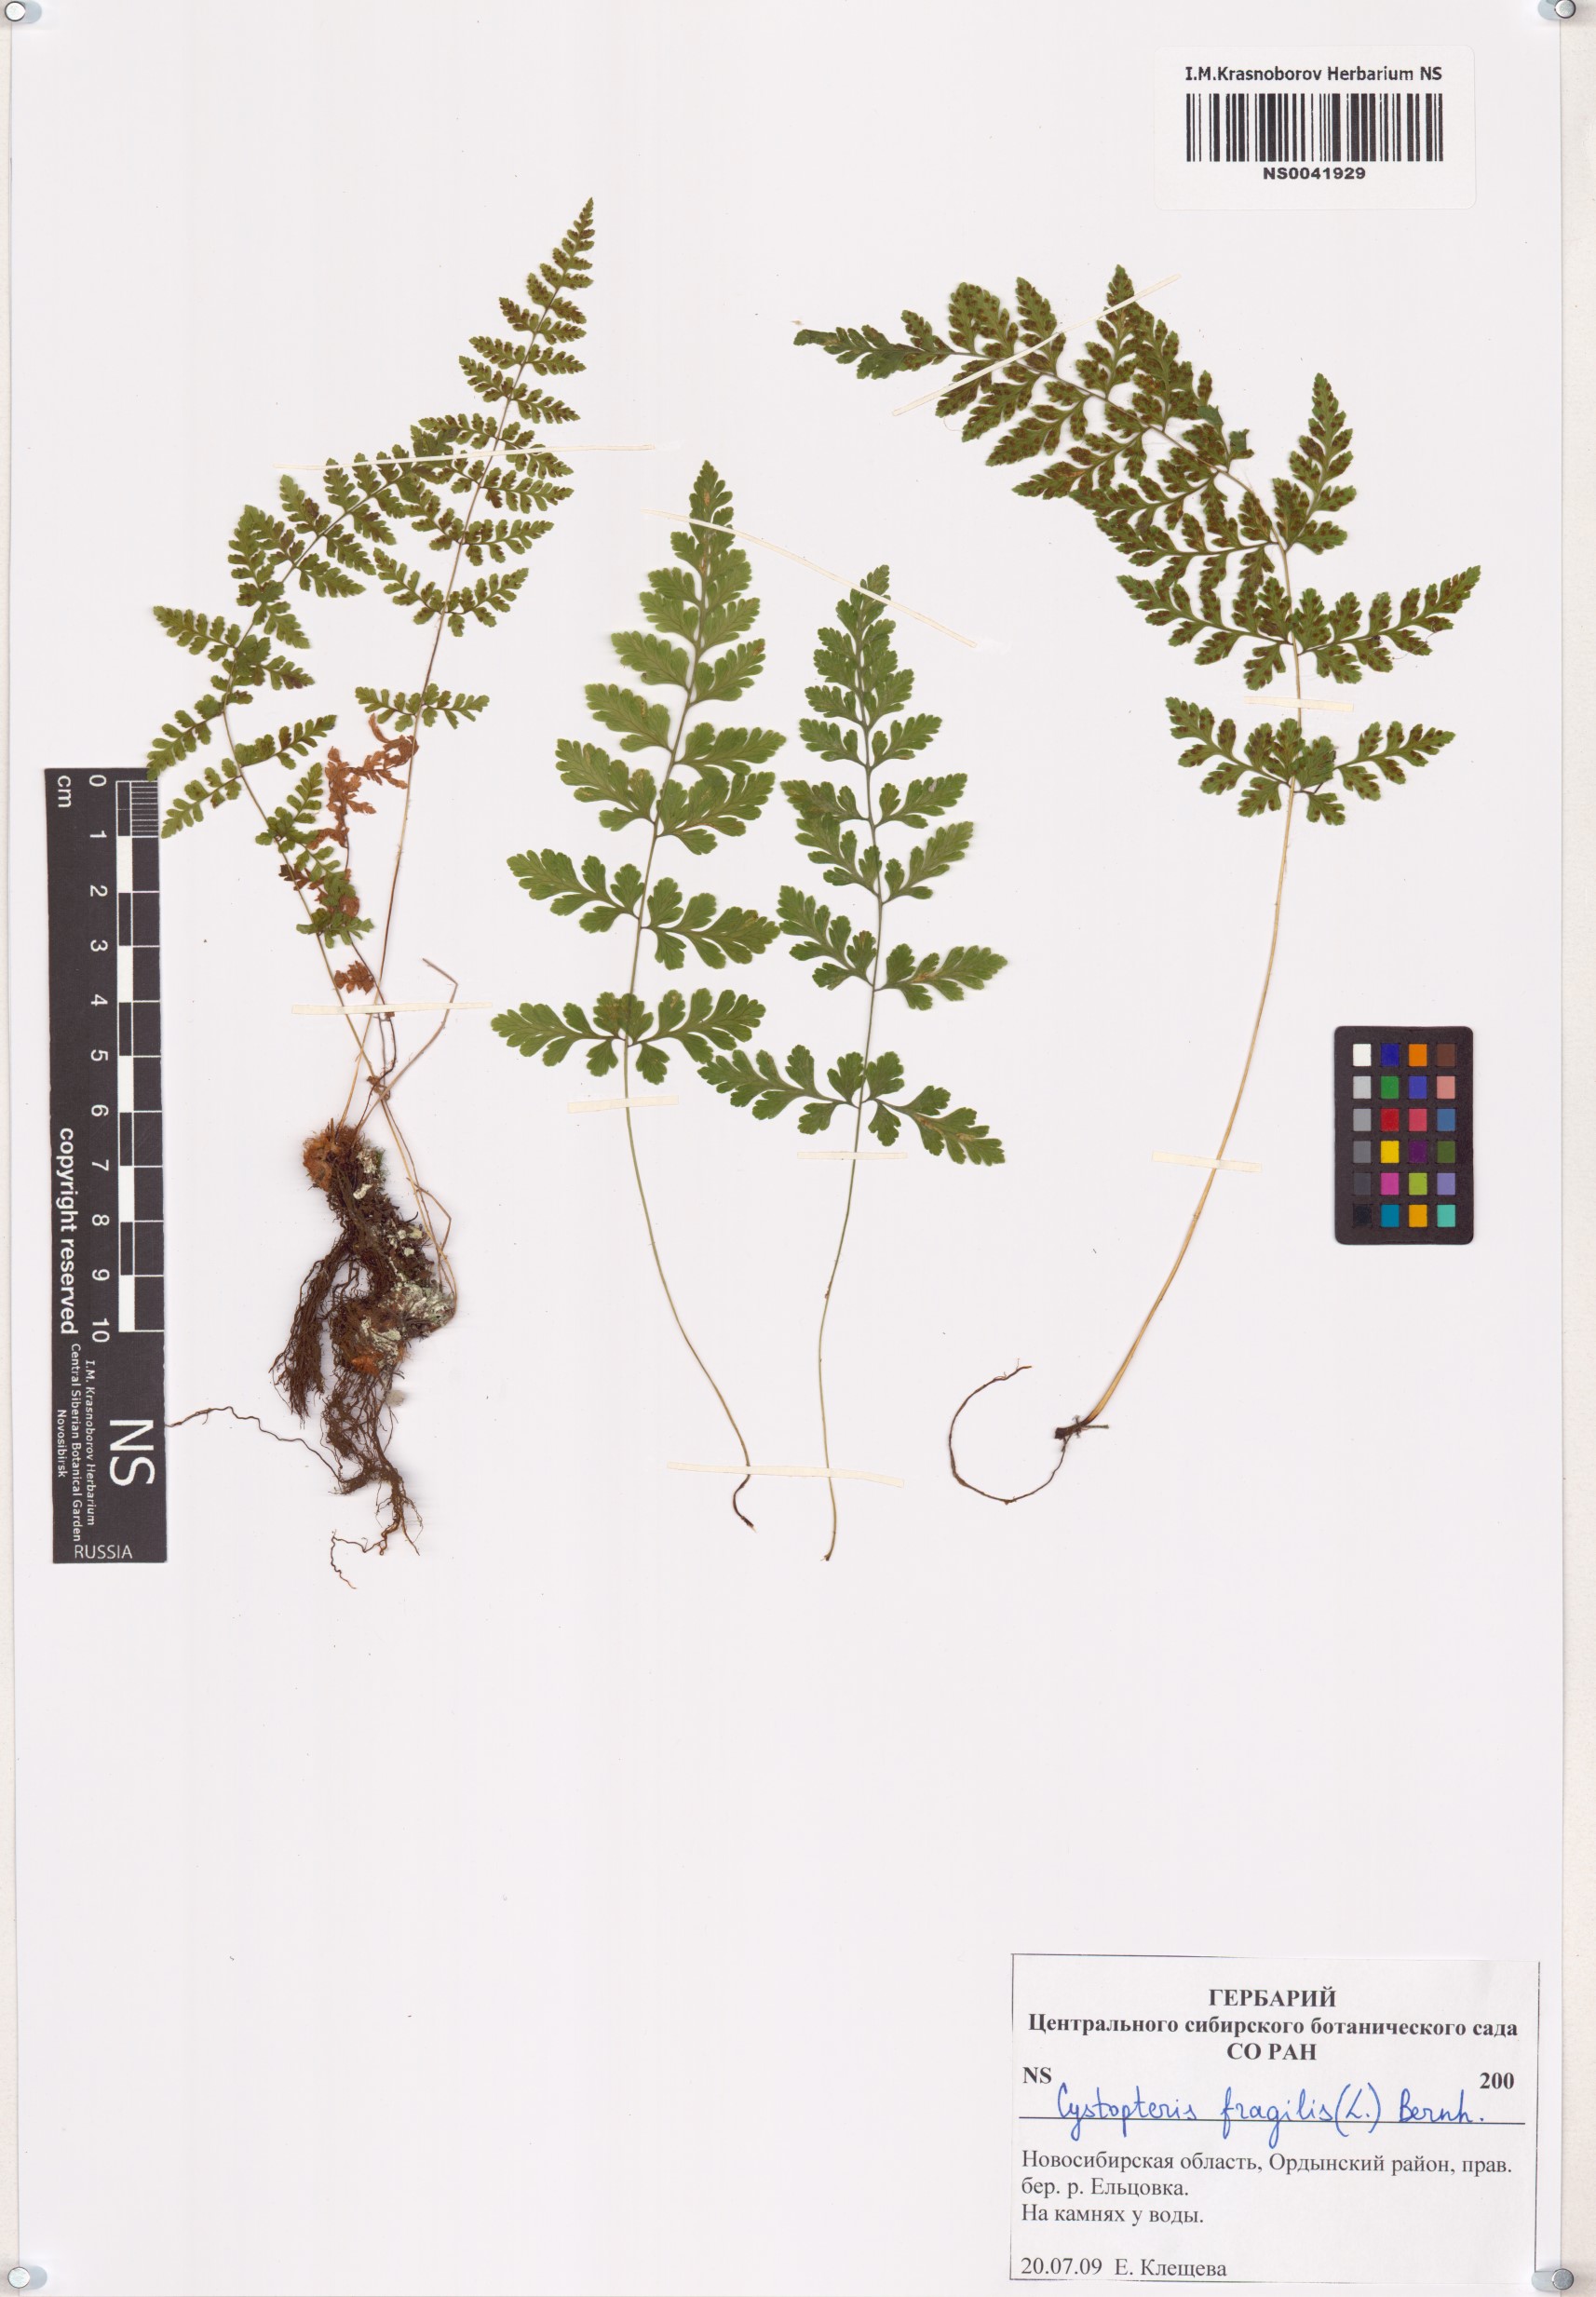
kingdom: Plantae
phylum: Tracheophyta
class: Polypodiopsida
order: Polypodiales
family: Cystopteridaceae
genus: Cystopteris
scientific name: Cystopteris fragilis
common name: Brittle bladder fern
